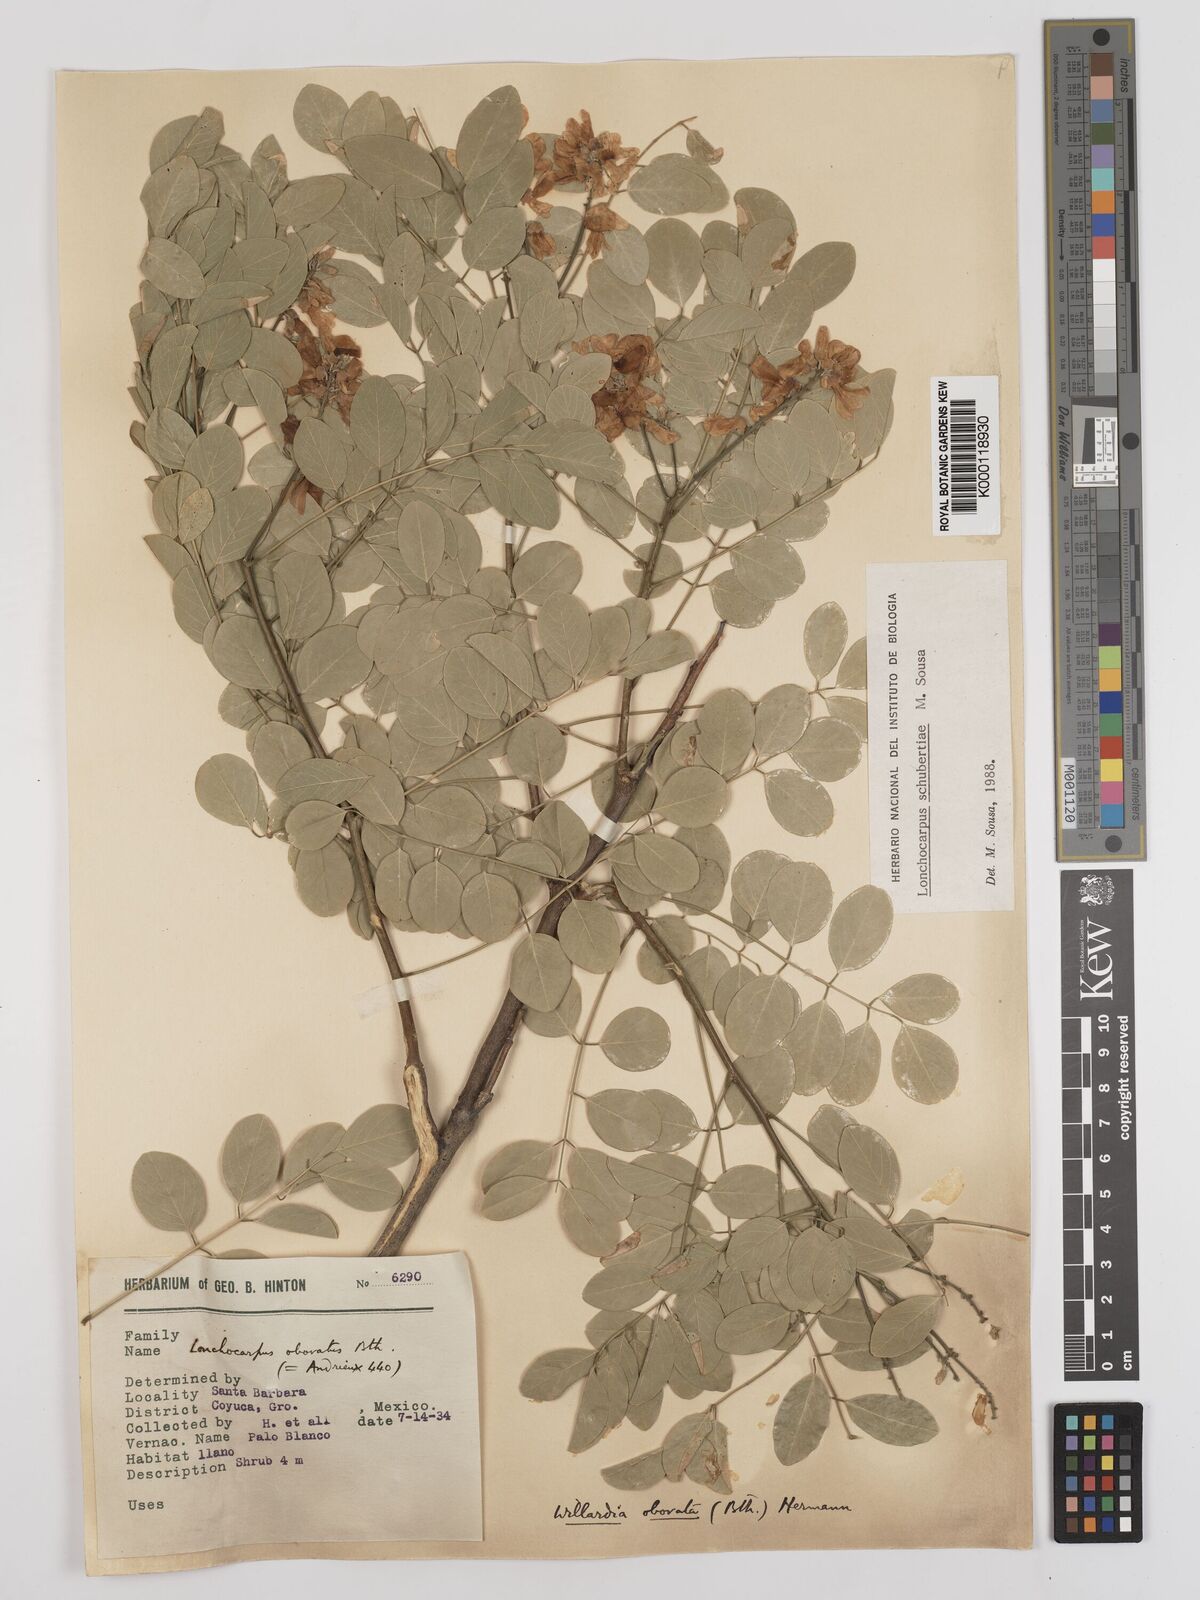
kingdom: Plantae
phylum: Tracheophyta
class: Magnoliopsida
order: Fabales
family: Fabaceae
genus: Lonchocarpus
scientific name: Lonchocarpus schubertiae
